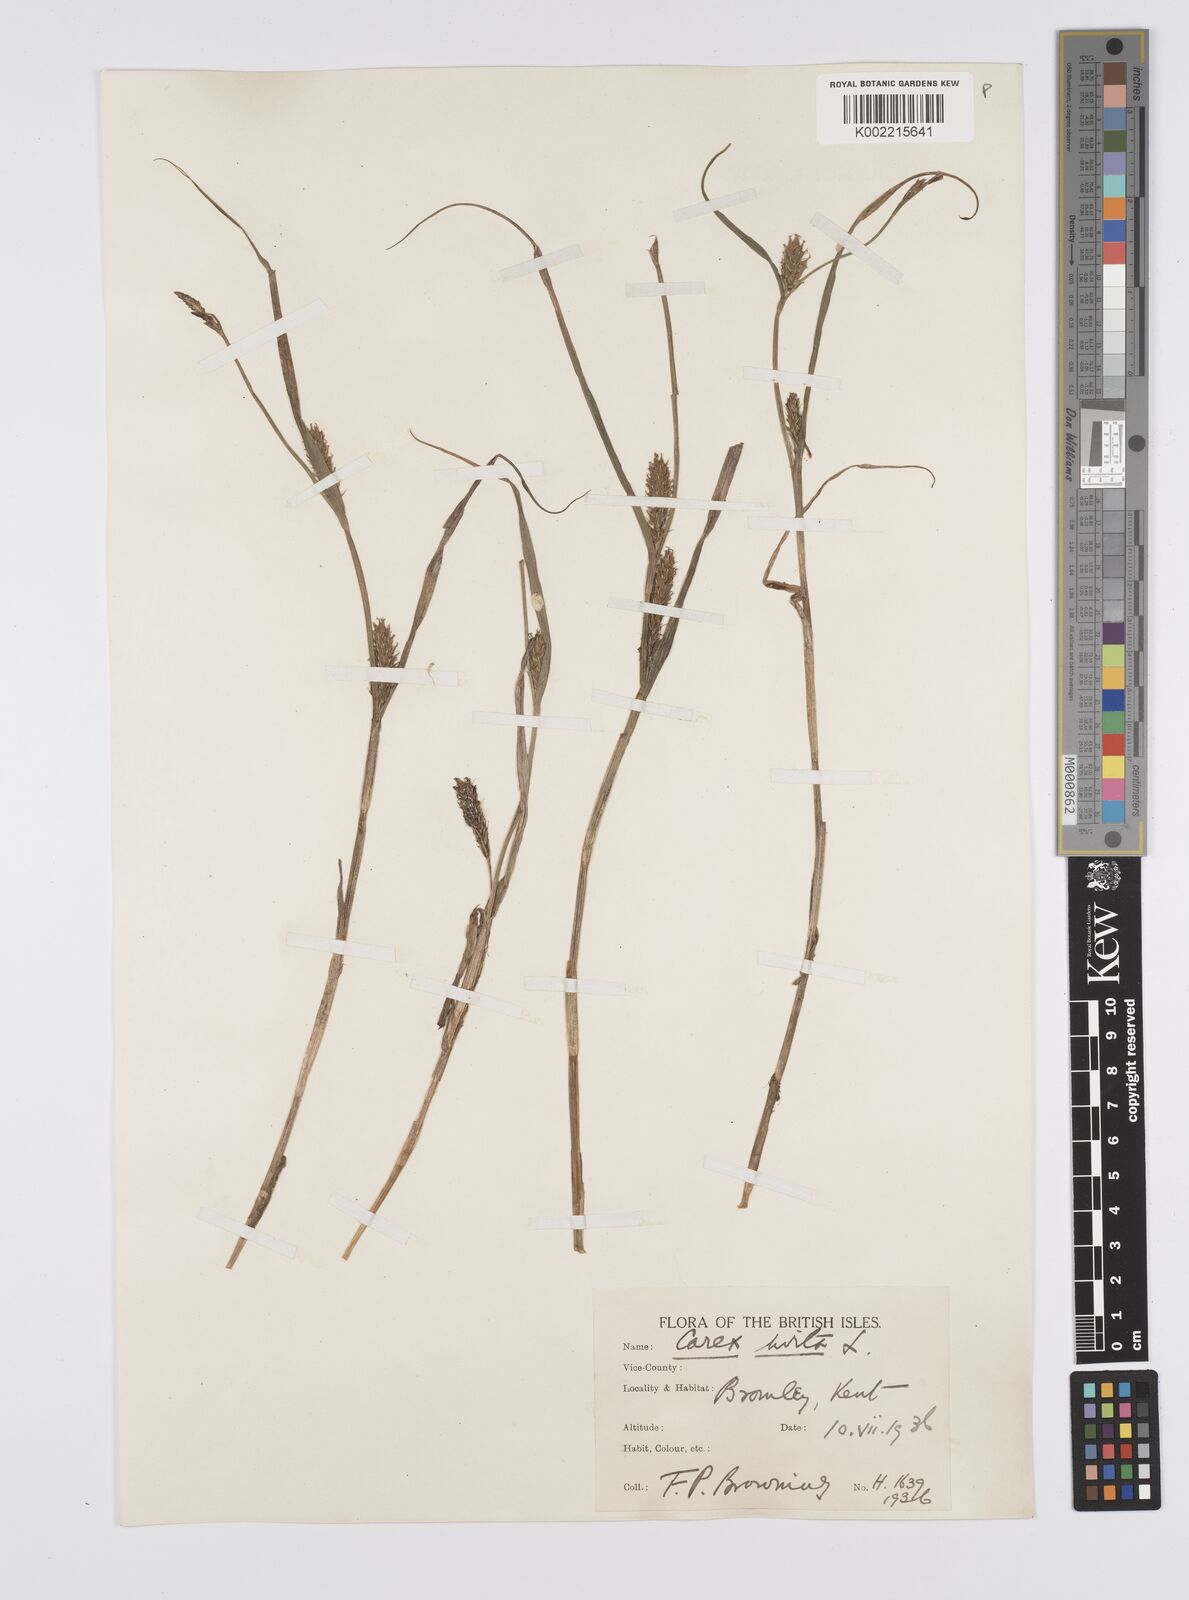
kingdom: Plantae
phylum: Tracheophyta
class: Liliopsida
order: Poales
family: Cyperaceae
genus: Carex
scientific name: Carex hirta
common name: Hairy sedge
